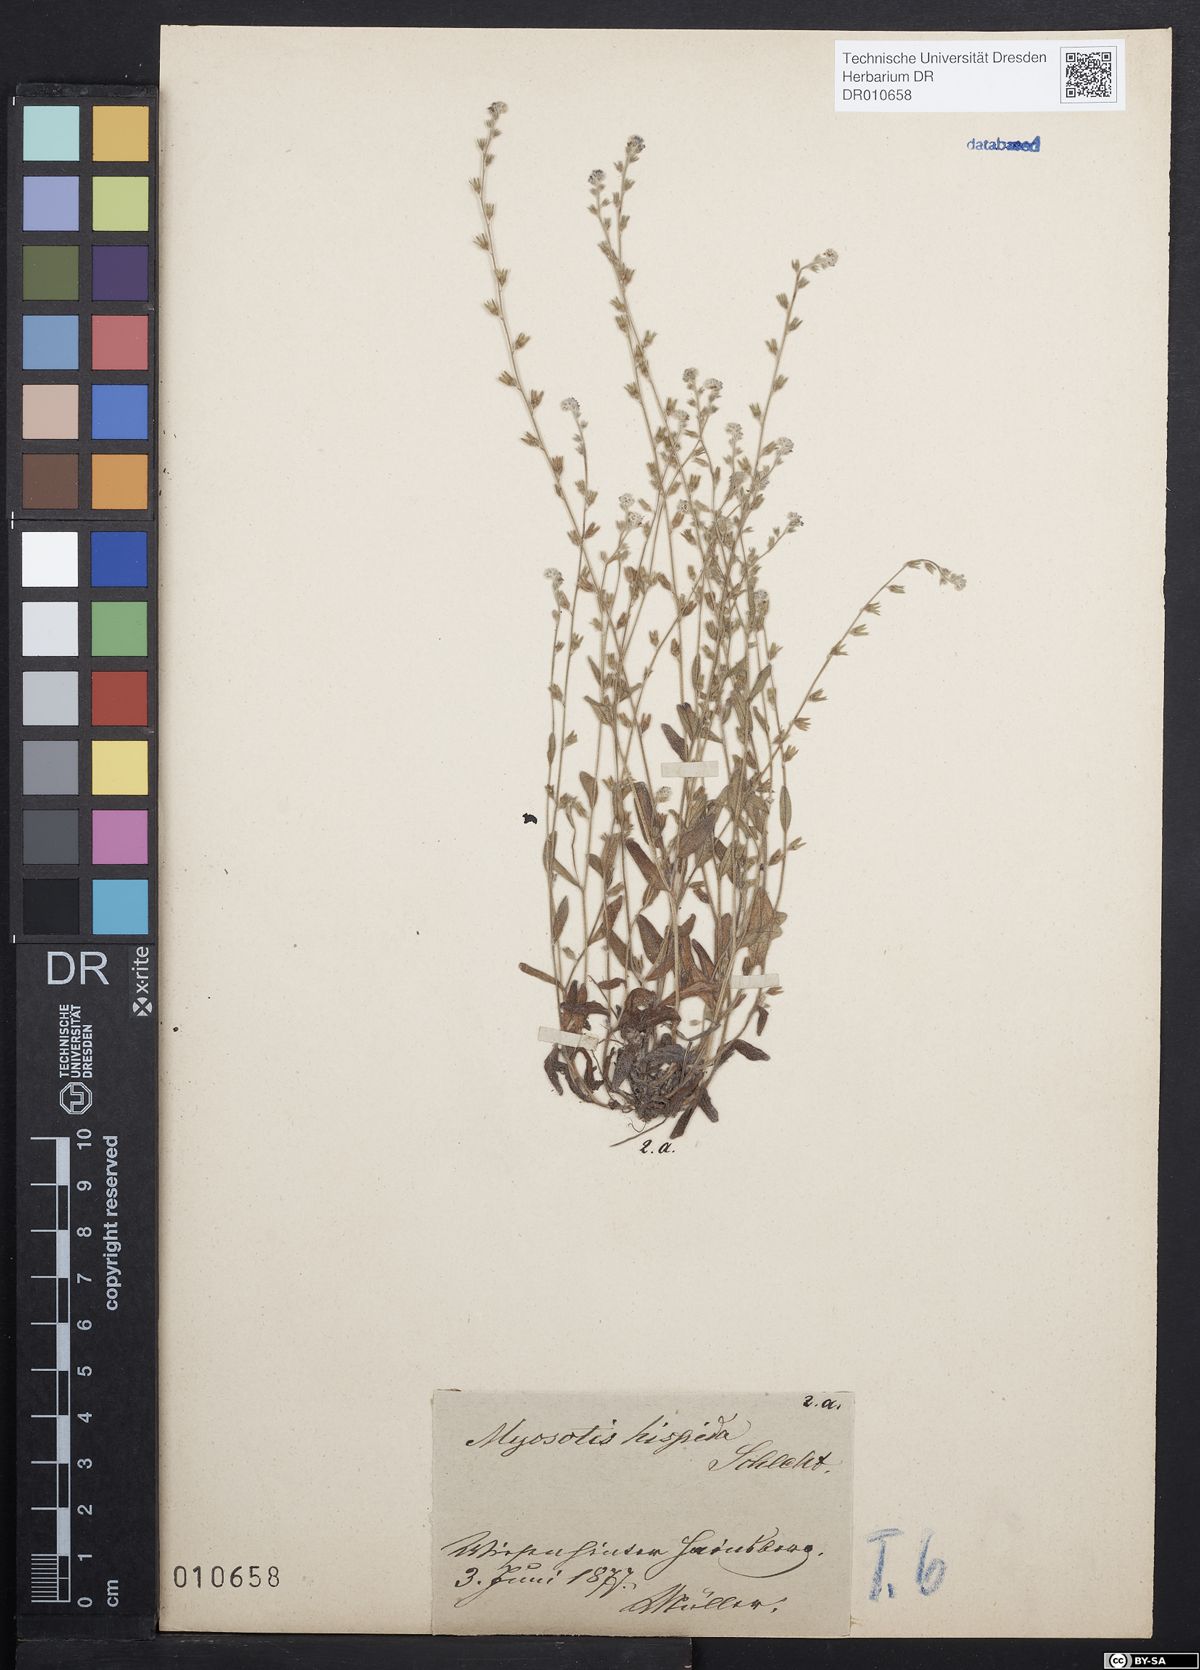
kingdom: Plantae
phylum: Tracheophyta
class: Magnoliopsida
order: Boraginales
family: Boraginaceae
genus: Myosotis
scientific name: Myosotis ramosissima
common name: Early forget-me-not
